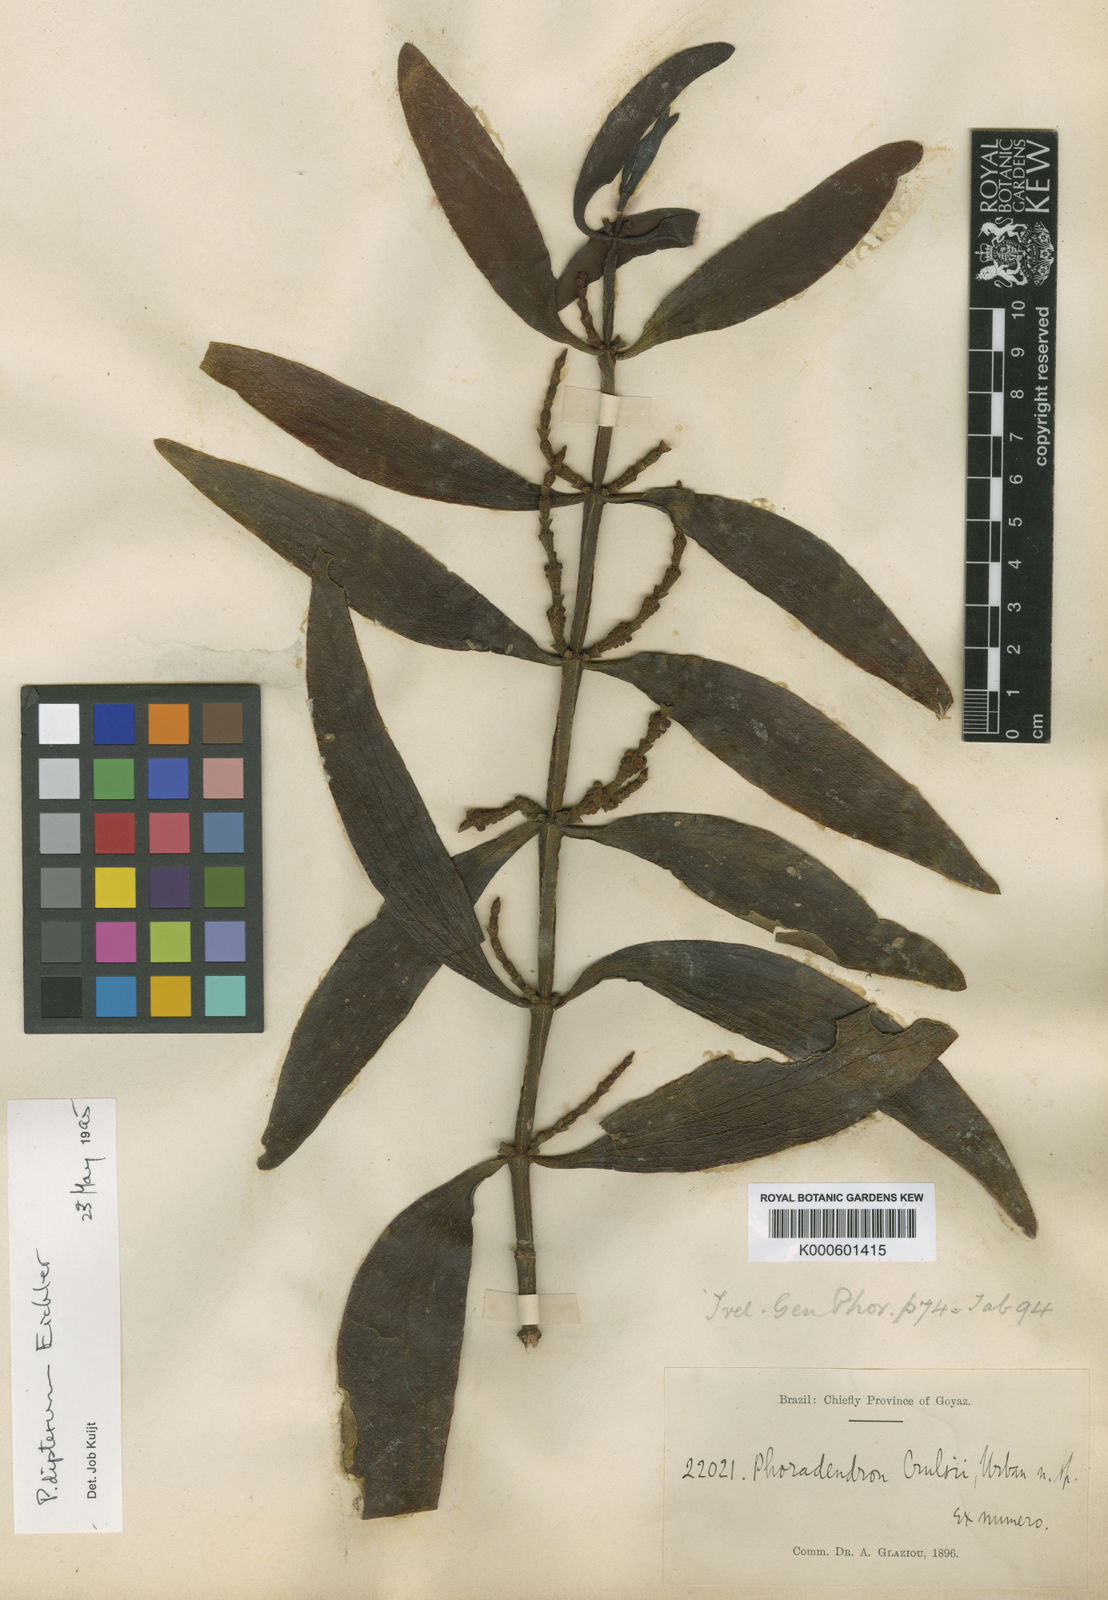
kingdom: Plantae
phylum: Tracheophyta
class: Magnoliopsida
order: Santalales
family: Viscaceae
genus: Phoradendron
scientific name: Phoradendron dipterum
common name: Fourpart mistletoe
